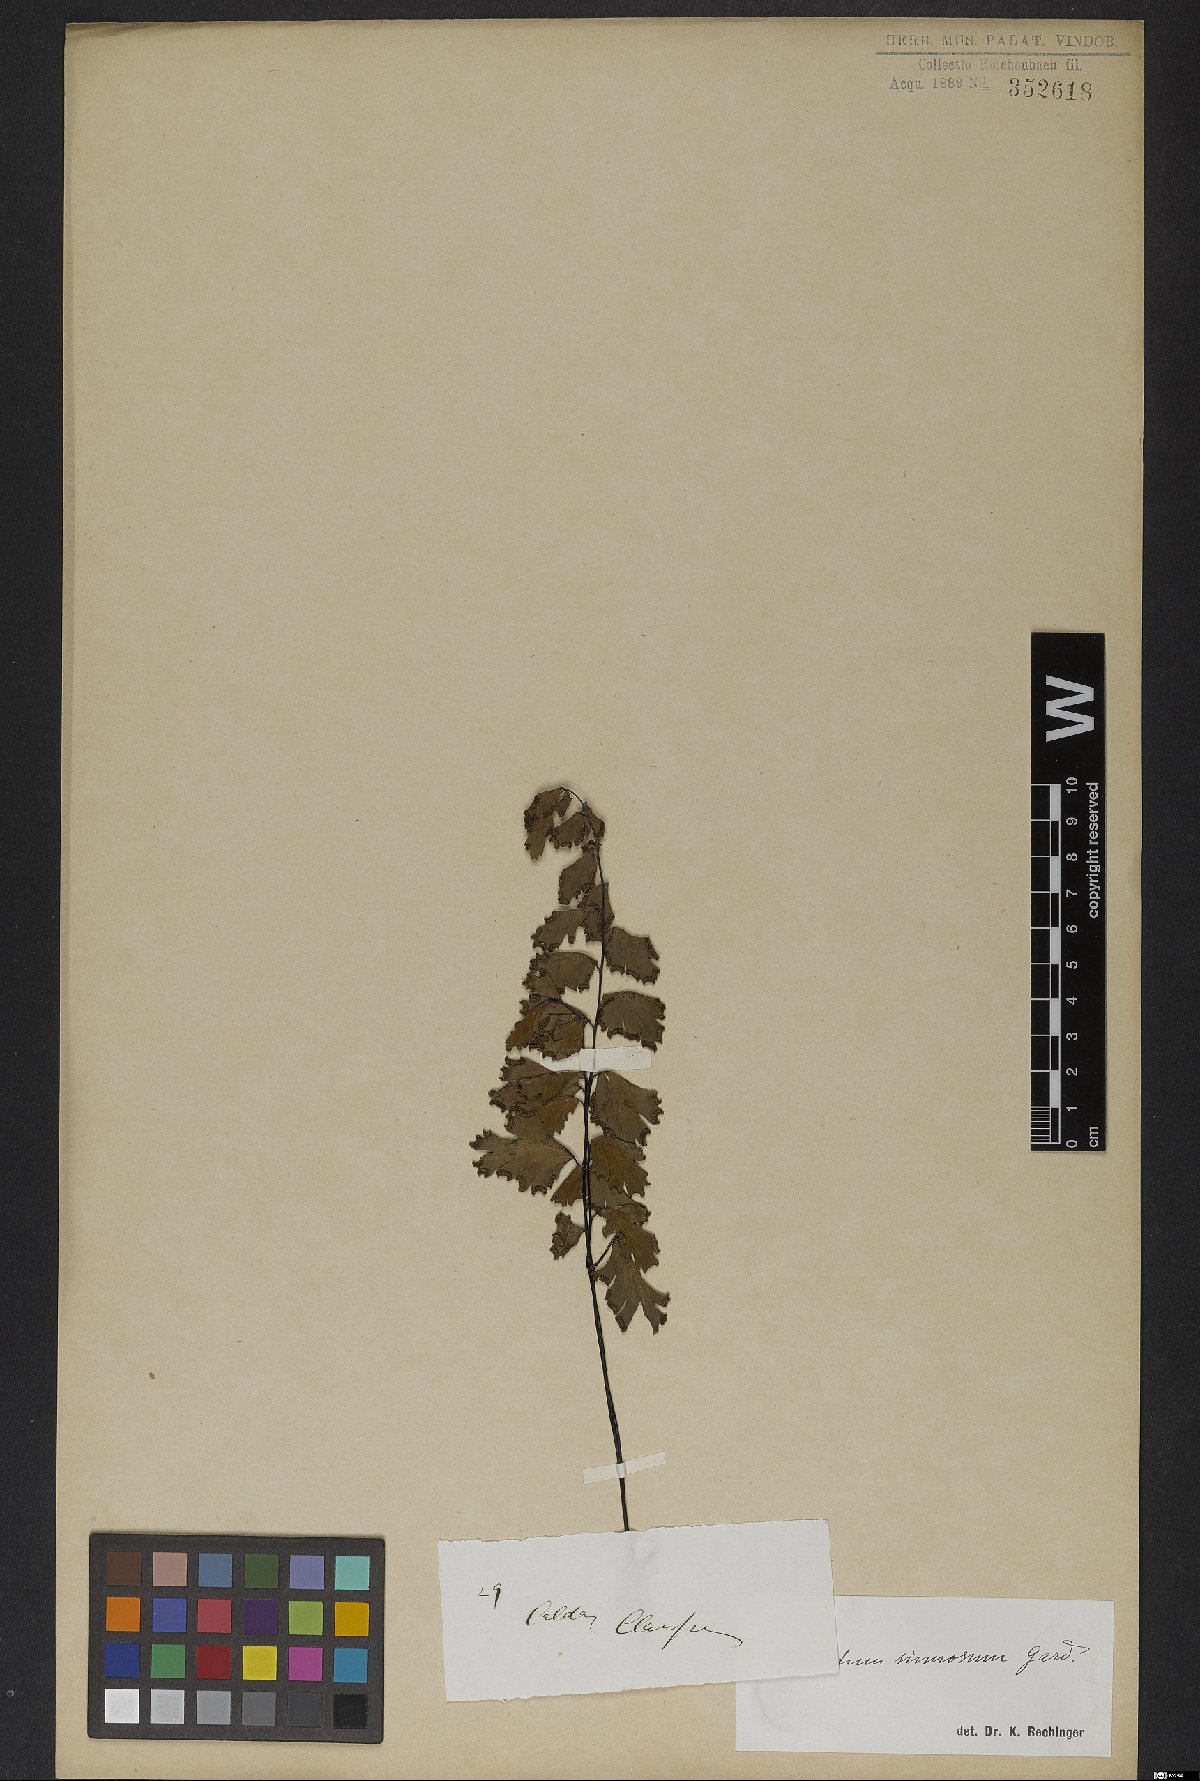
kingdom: Plantae
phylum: Tracheophyta
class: Polypodiopsida
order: Polypodiales
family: Pteridaceae
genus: Adiantum
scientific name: Adiantum sinuosum
